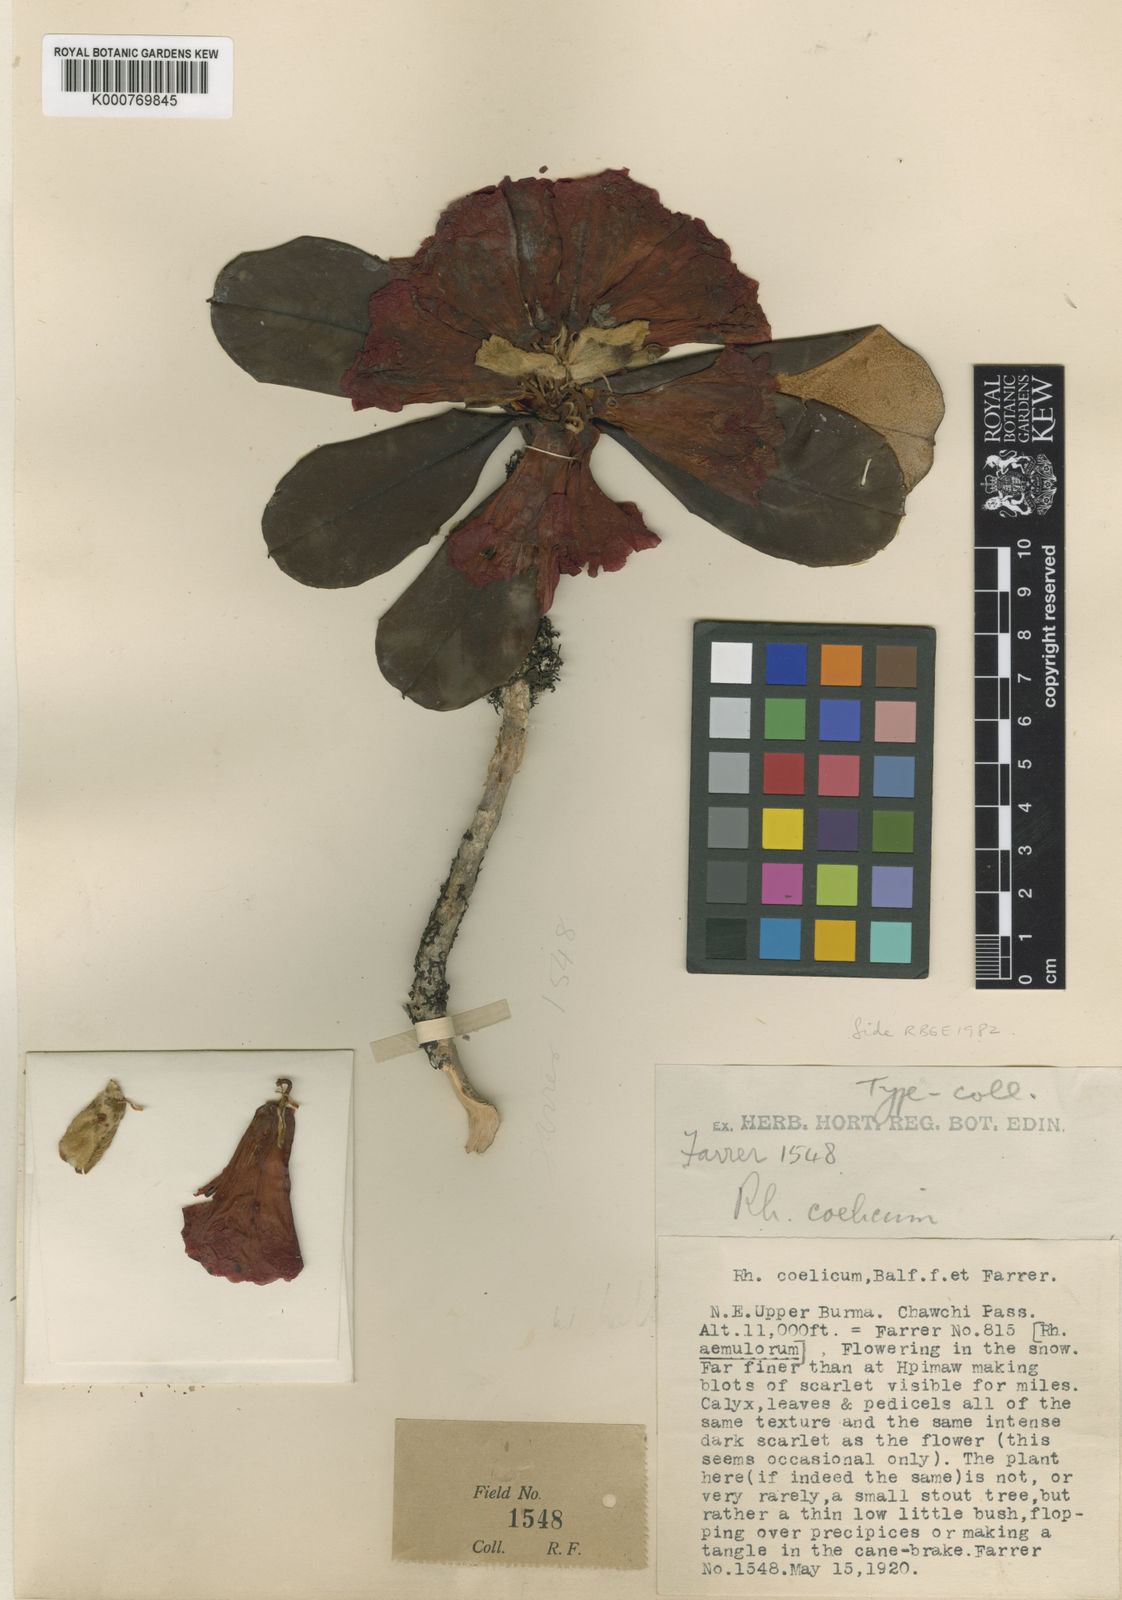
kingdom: Plantae
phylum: Tracheophyta
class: Magnoliopsida
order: Ericales
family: Ericaceae
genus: Rhododendron
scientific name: Rhododendron coelicum
